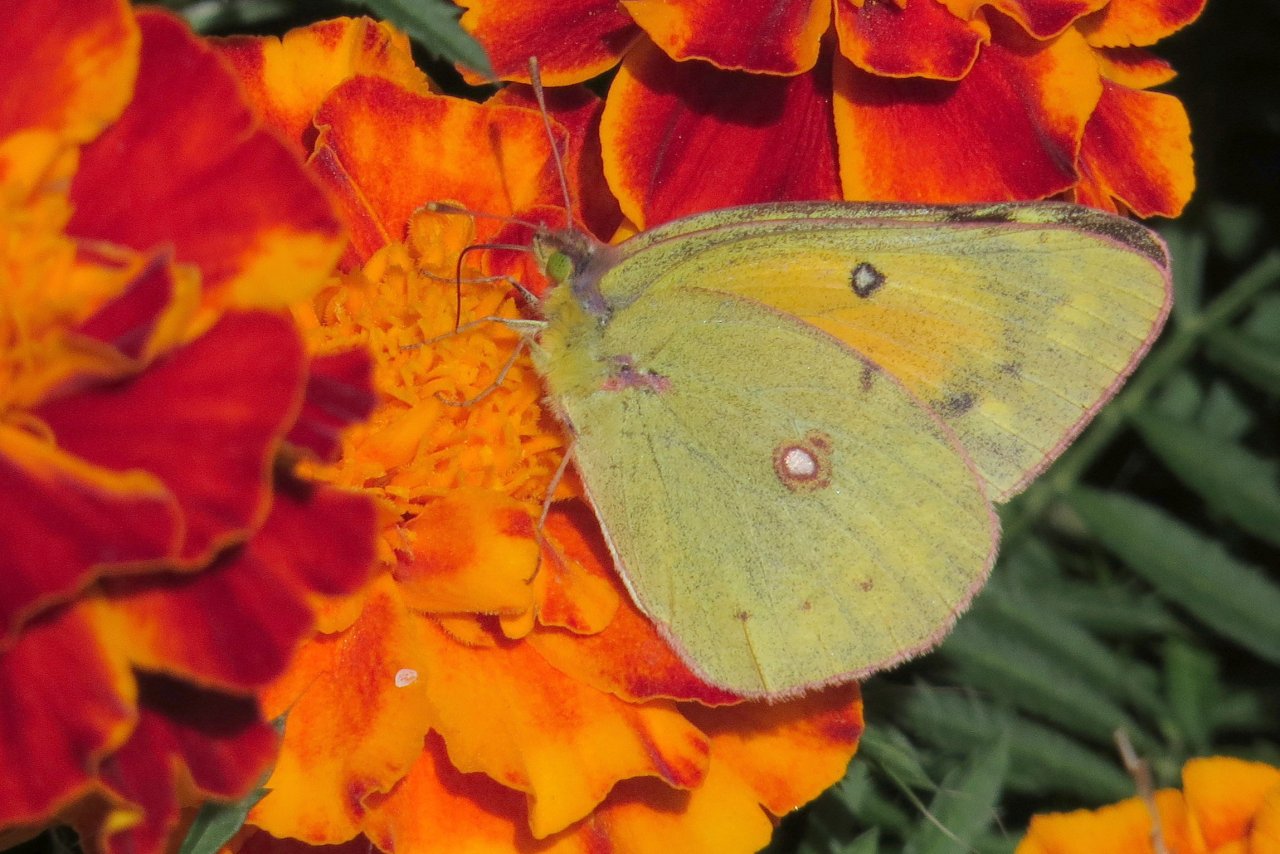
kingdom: Animalia
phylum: Arthropoda
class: Insecta
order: Lepidoptera
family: Pieridae
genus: Colias
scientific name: Colias eurytheme
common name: Orange Sulphur
